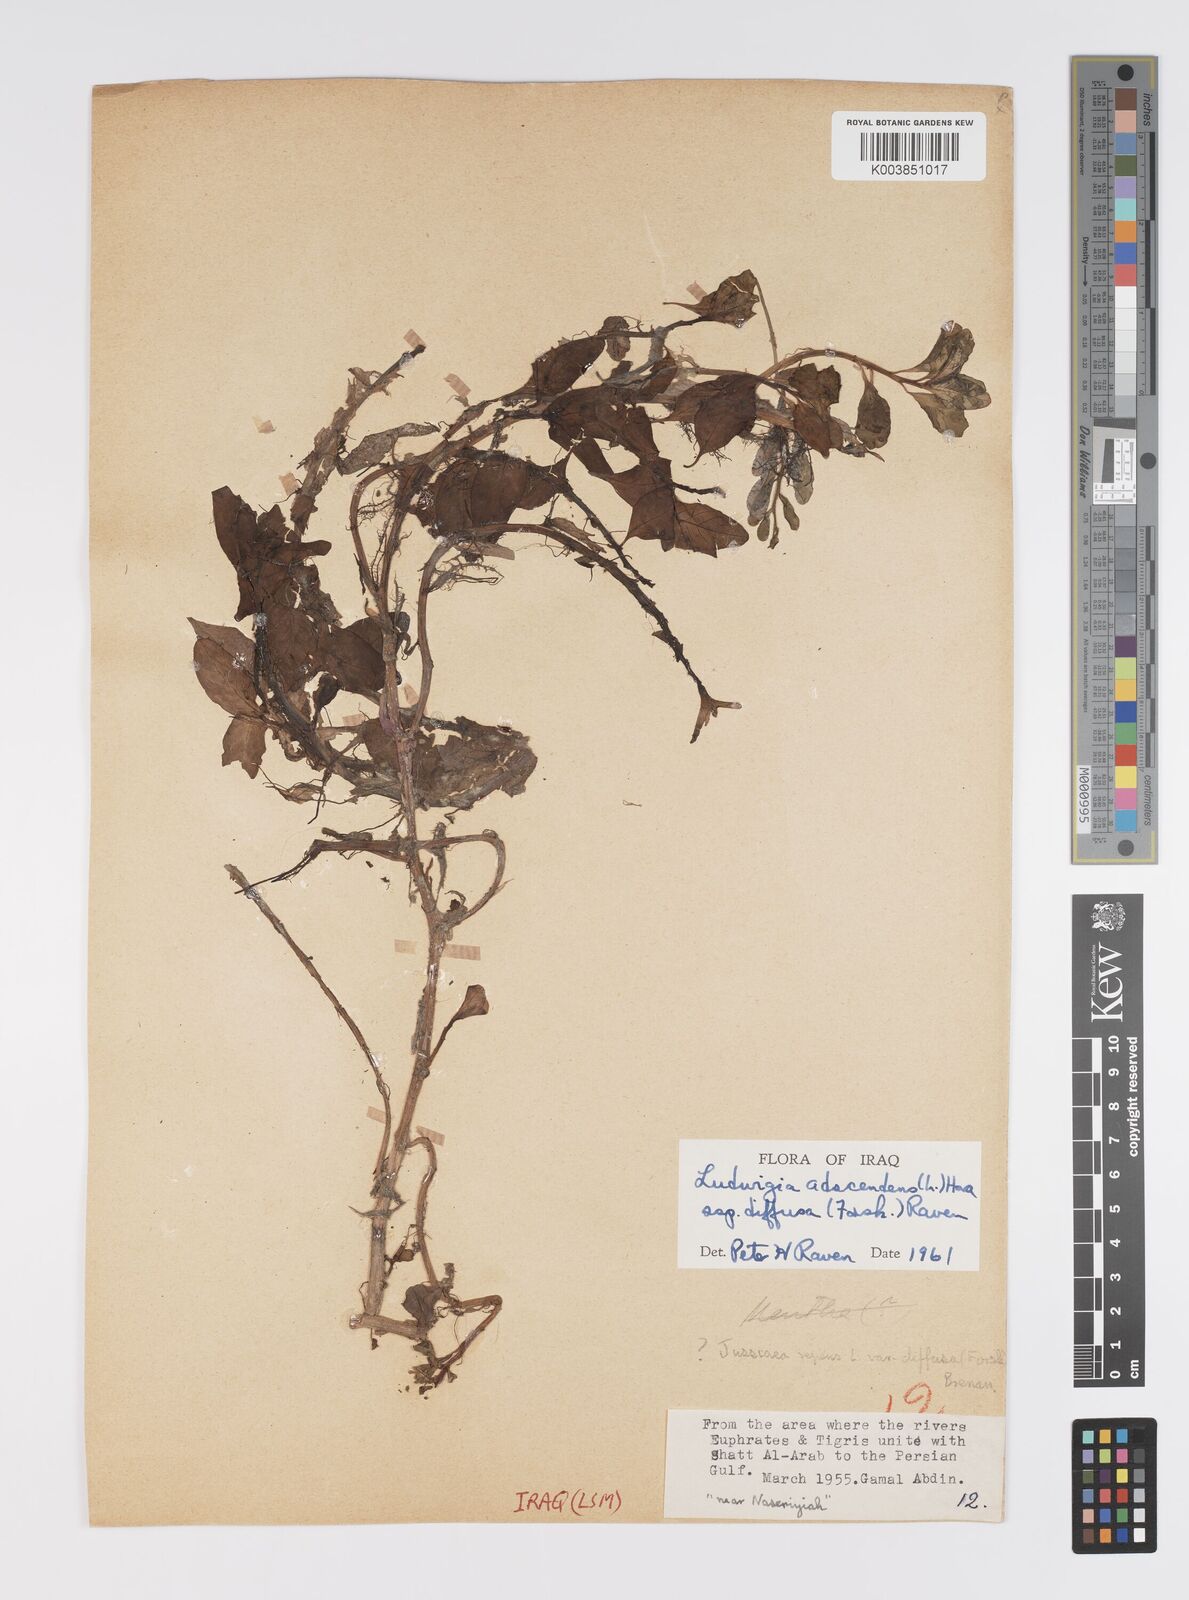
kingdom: Plantae
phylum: Tracheophyta
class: Magnoliopsida
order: Myrtales
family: Onagraceae
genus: Ludwigia
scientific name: Ludwigia adscendens
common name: Creeping water primrose
